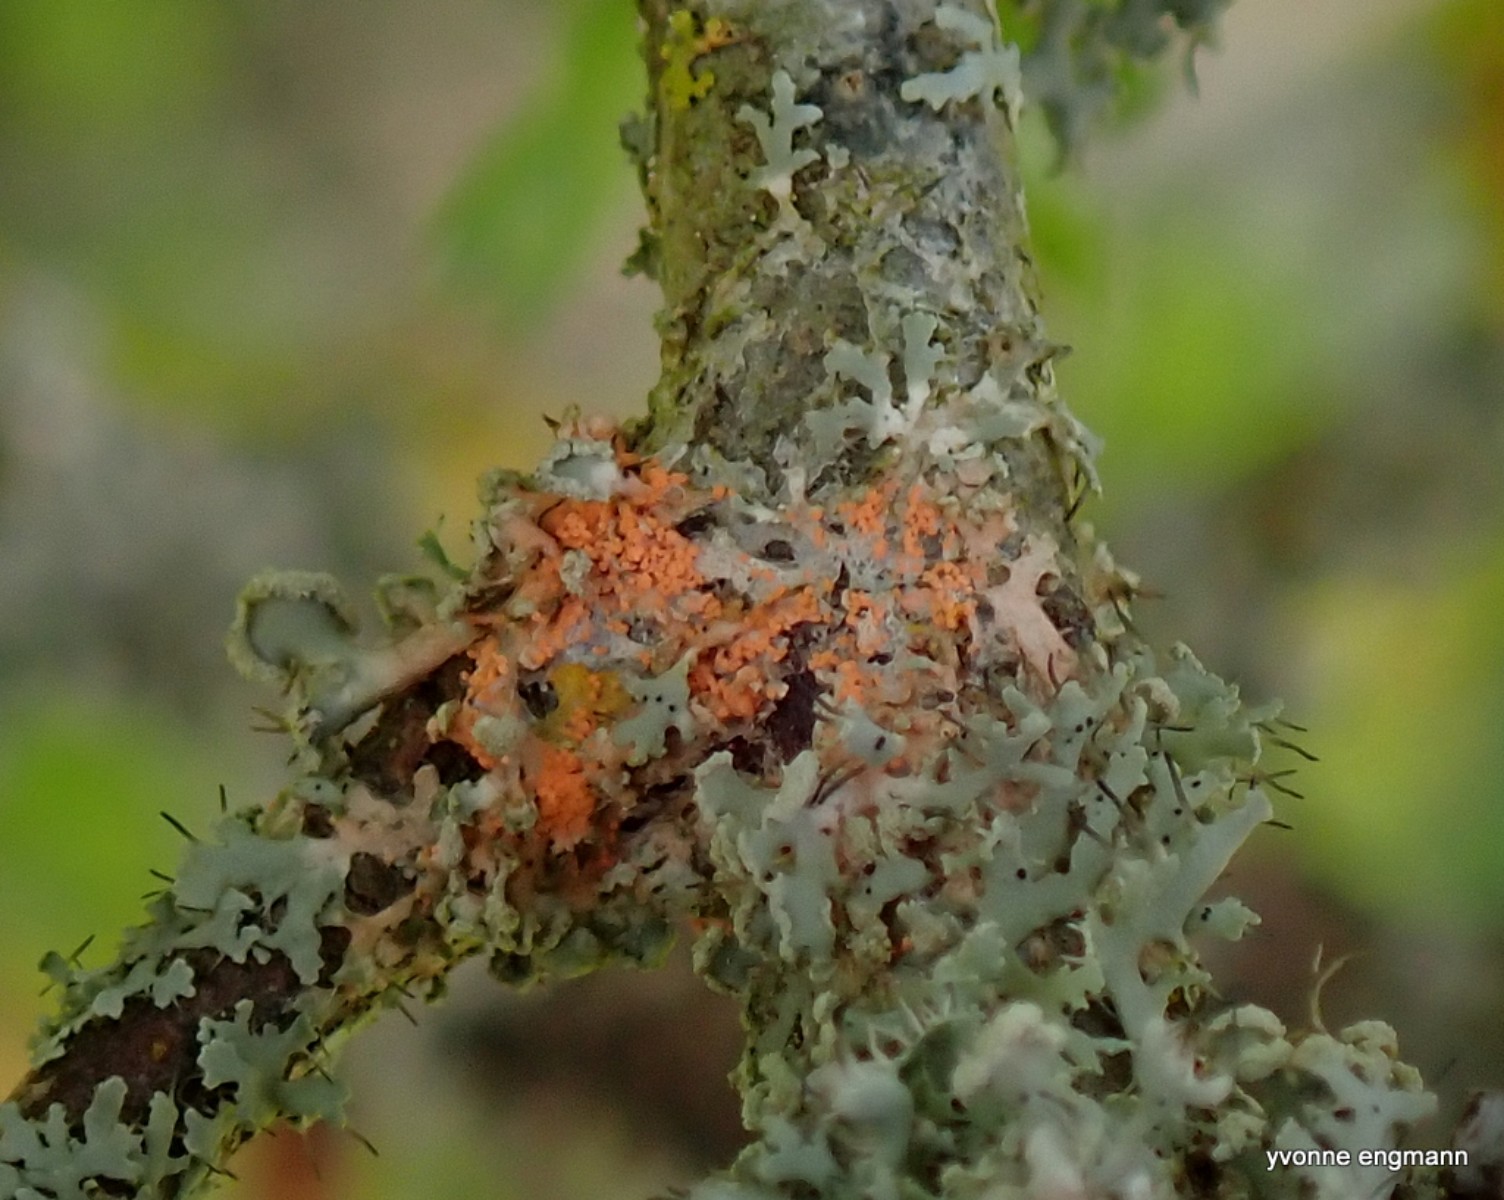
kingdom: Fungi
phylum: Basidiomycota
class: Agaricomycetes
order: Corticiales
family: Corticiaceae
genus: Erythricium
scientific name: Erythricium aurantiacum
